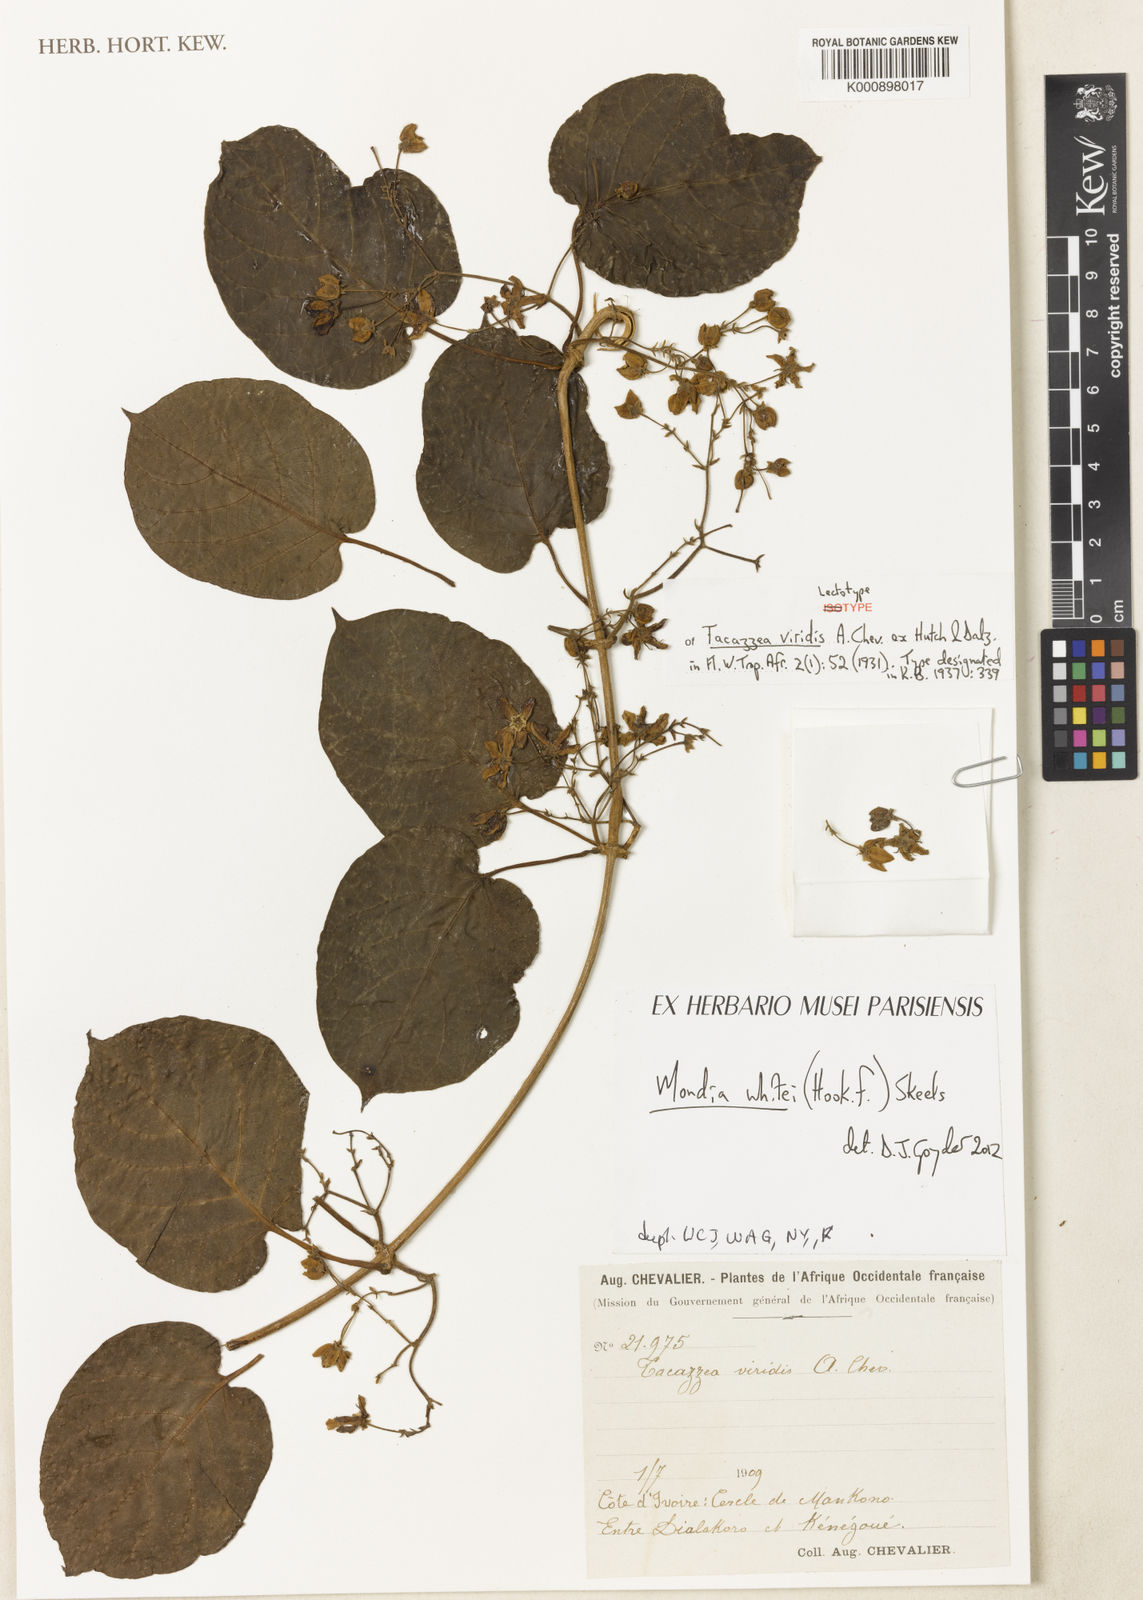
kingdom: Plantae
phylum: Tracheophyta
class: Magnoliopsida
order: Gentianales
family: Apocynaceae
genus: Mondia
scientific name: Mondia whitei
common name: Mondia
